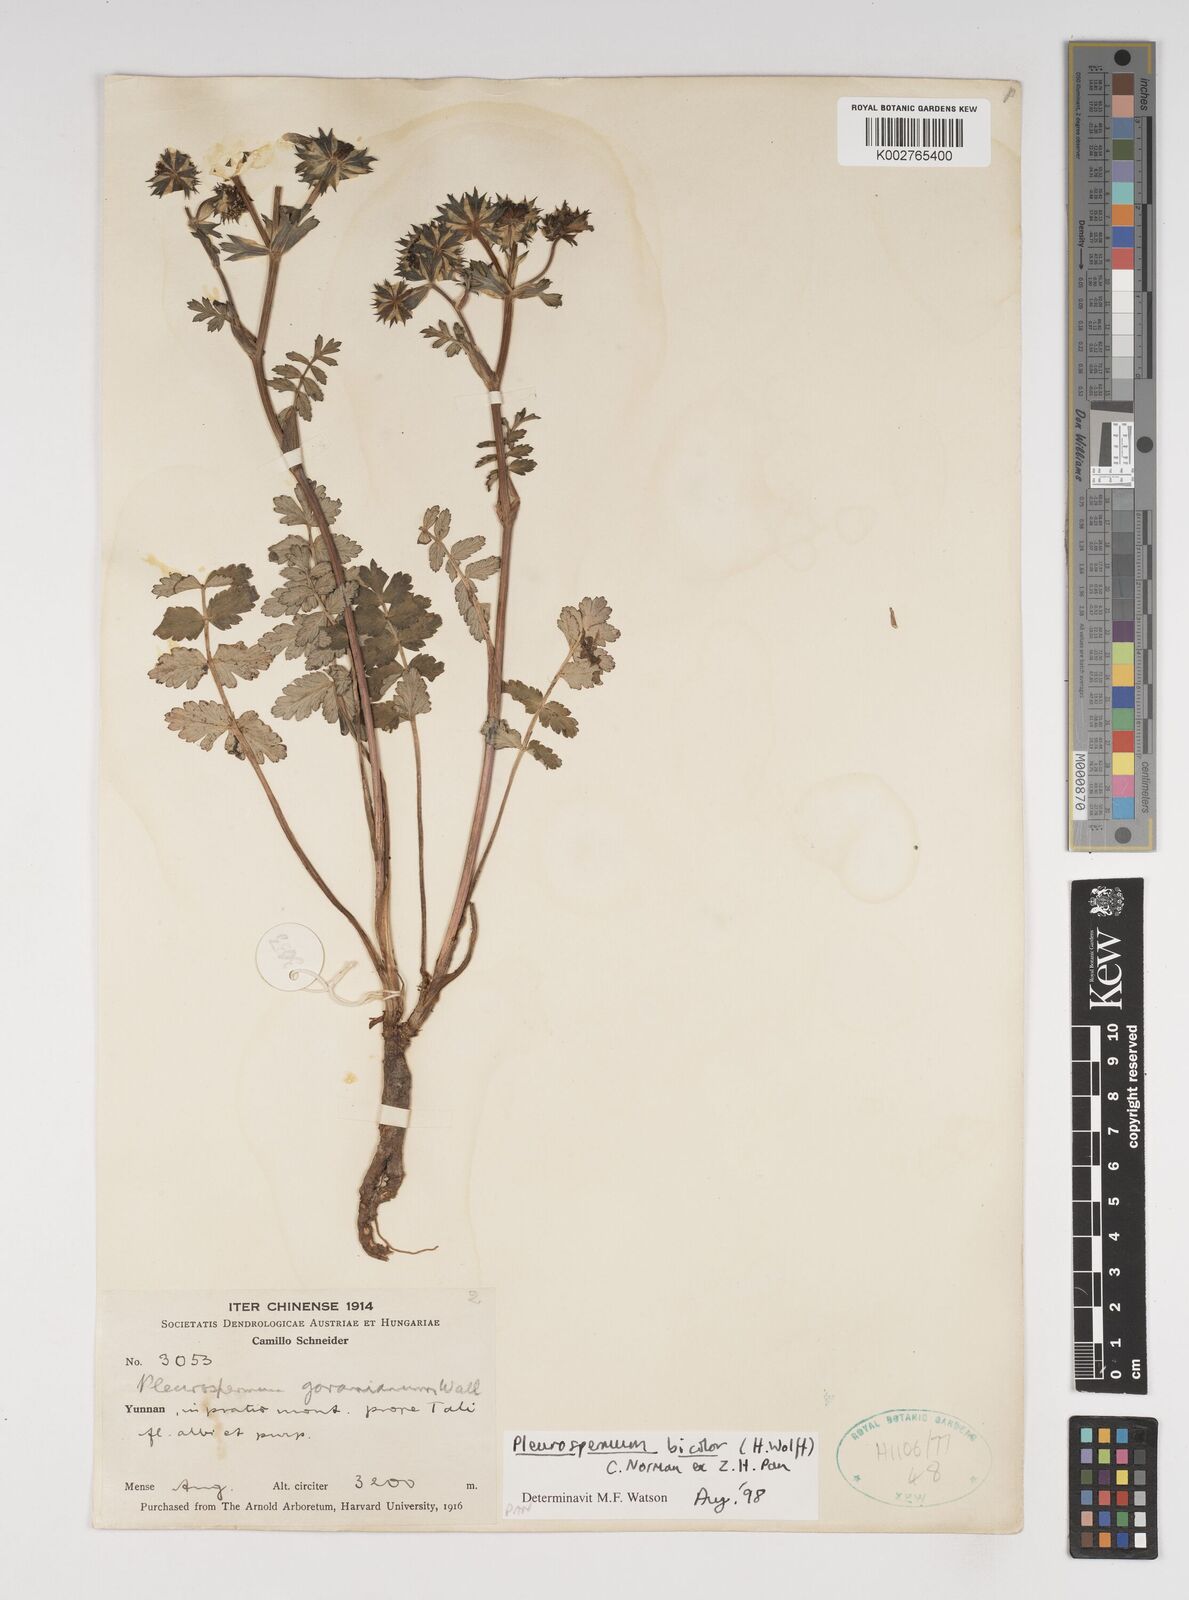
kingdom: Plantae
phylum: Tracheophyta
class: Magnoliopsida
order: Apiales
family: Apiaceae
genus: Pleurospermopsis
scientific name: Pleurospermopsis bicolor
